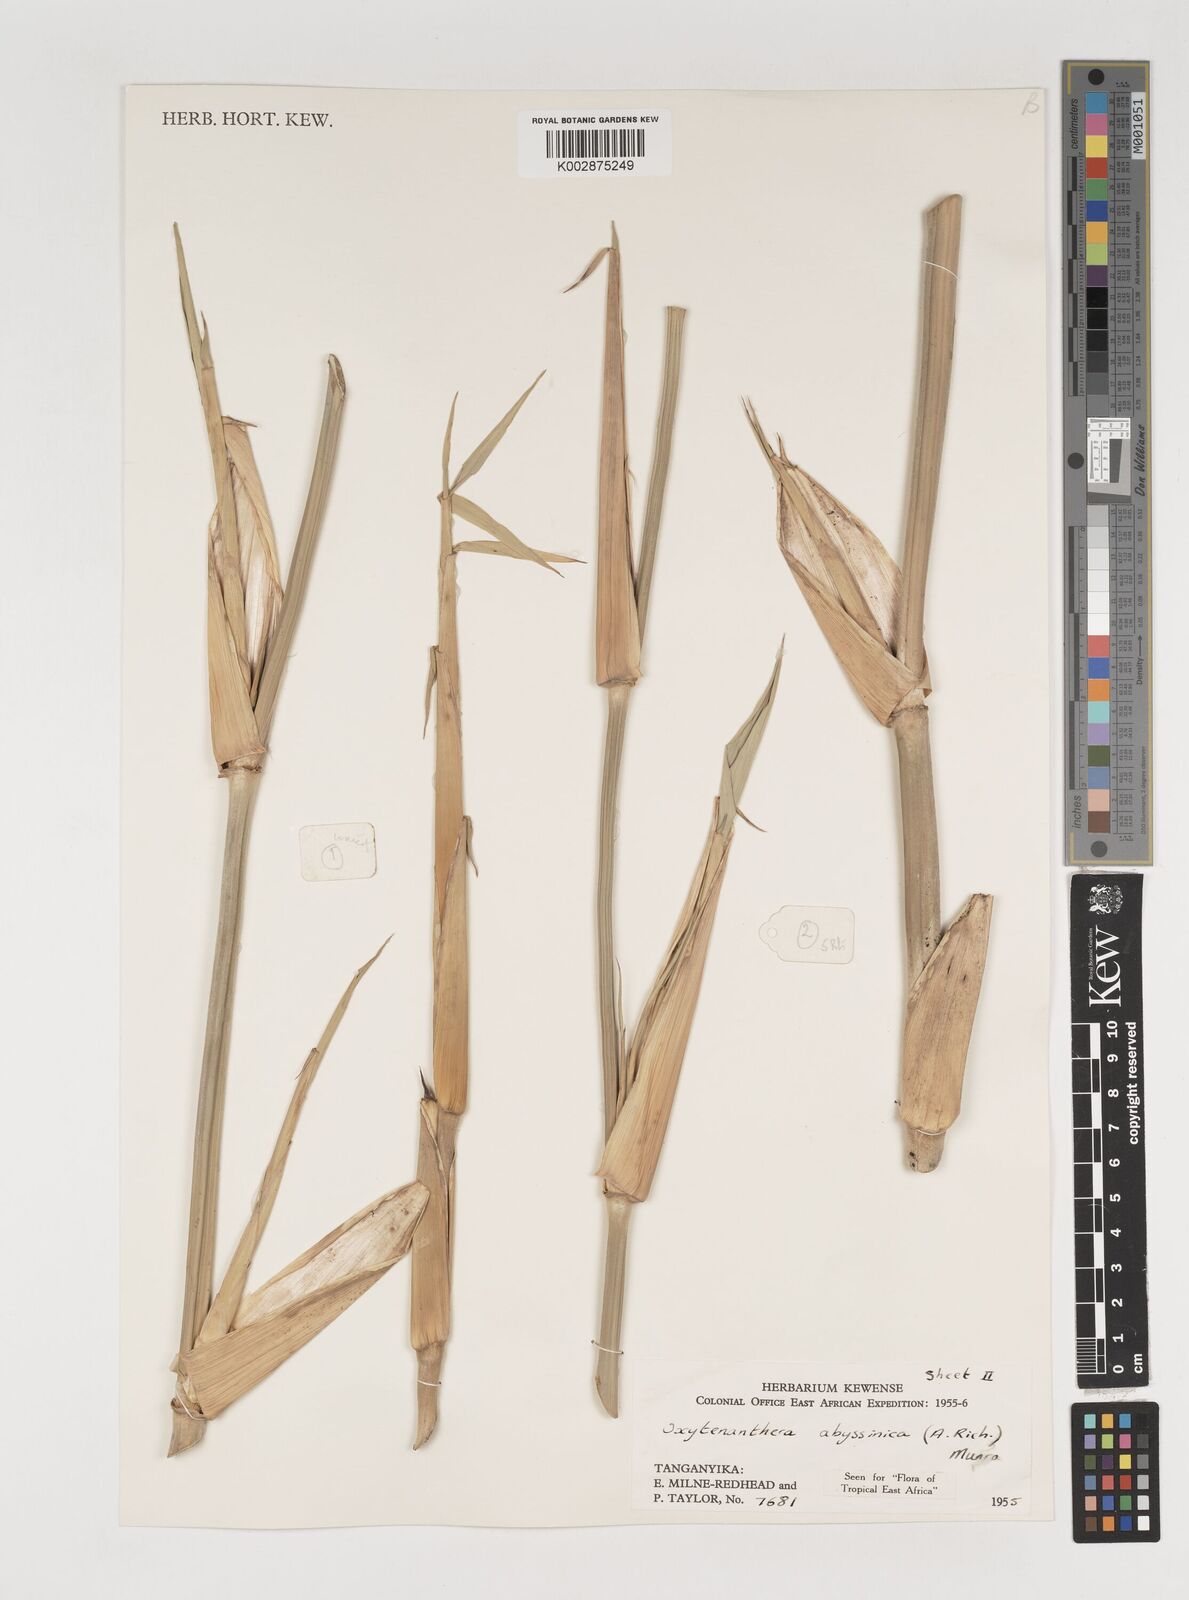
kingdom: Plantae
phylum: Tracheophyta
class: Liliopsida
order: Poales
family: Poaceae
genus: Oxytenanthera
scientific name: Oxytenanthera abyssinica
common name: Wine bamboo
